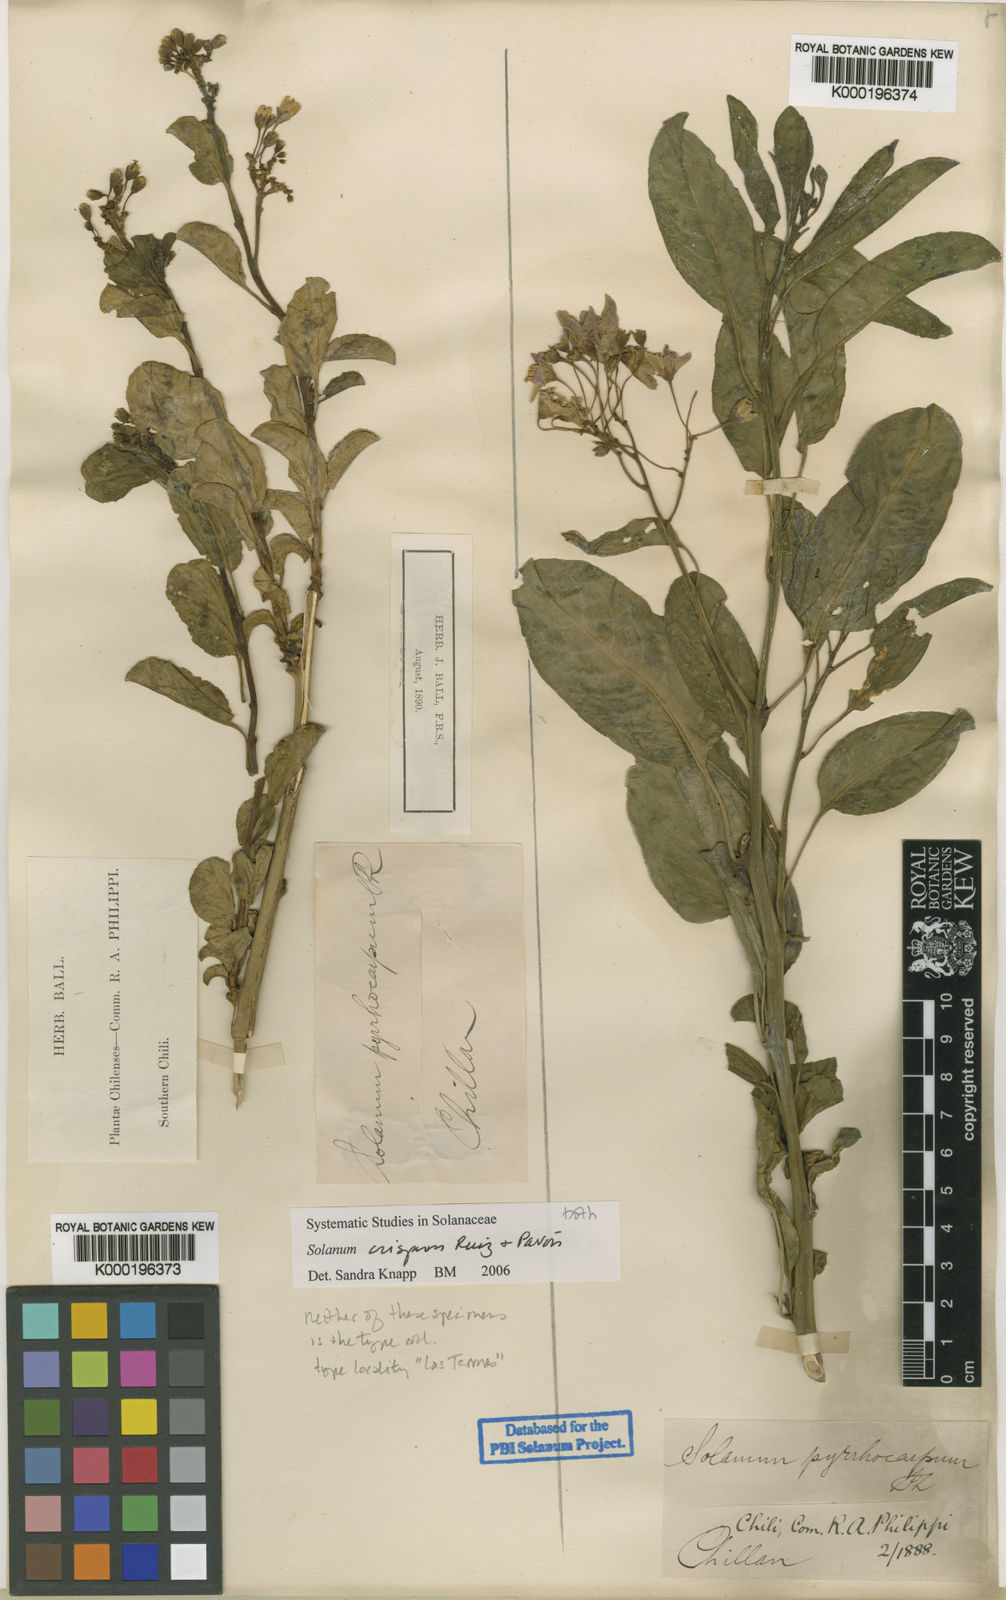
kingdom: Plantae
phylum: Tracheophyta
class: Magnoliopsida
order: Solanales
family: Solanaceae
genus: Solanum
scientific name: Solanum crispum
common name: Chilean nightshade
